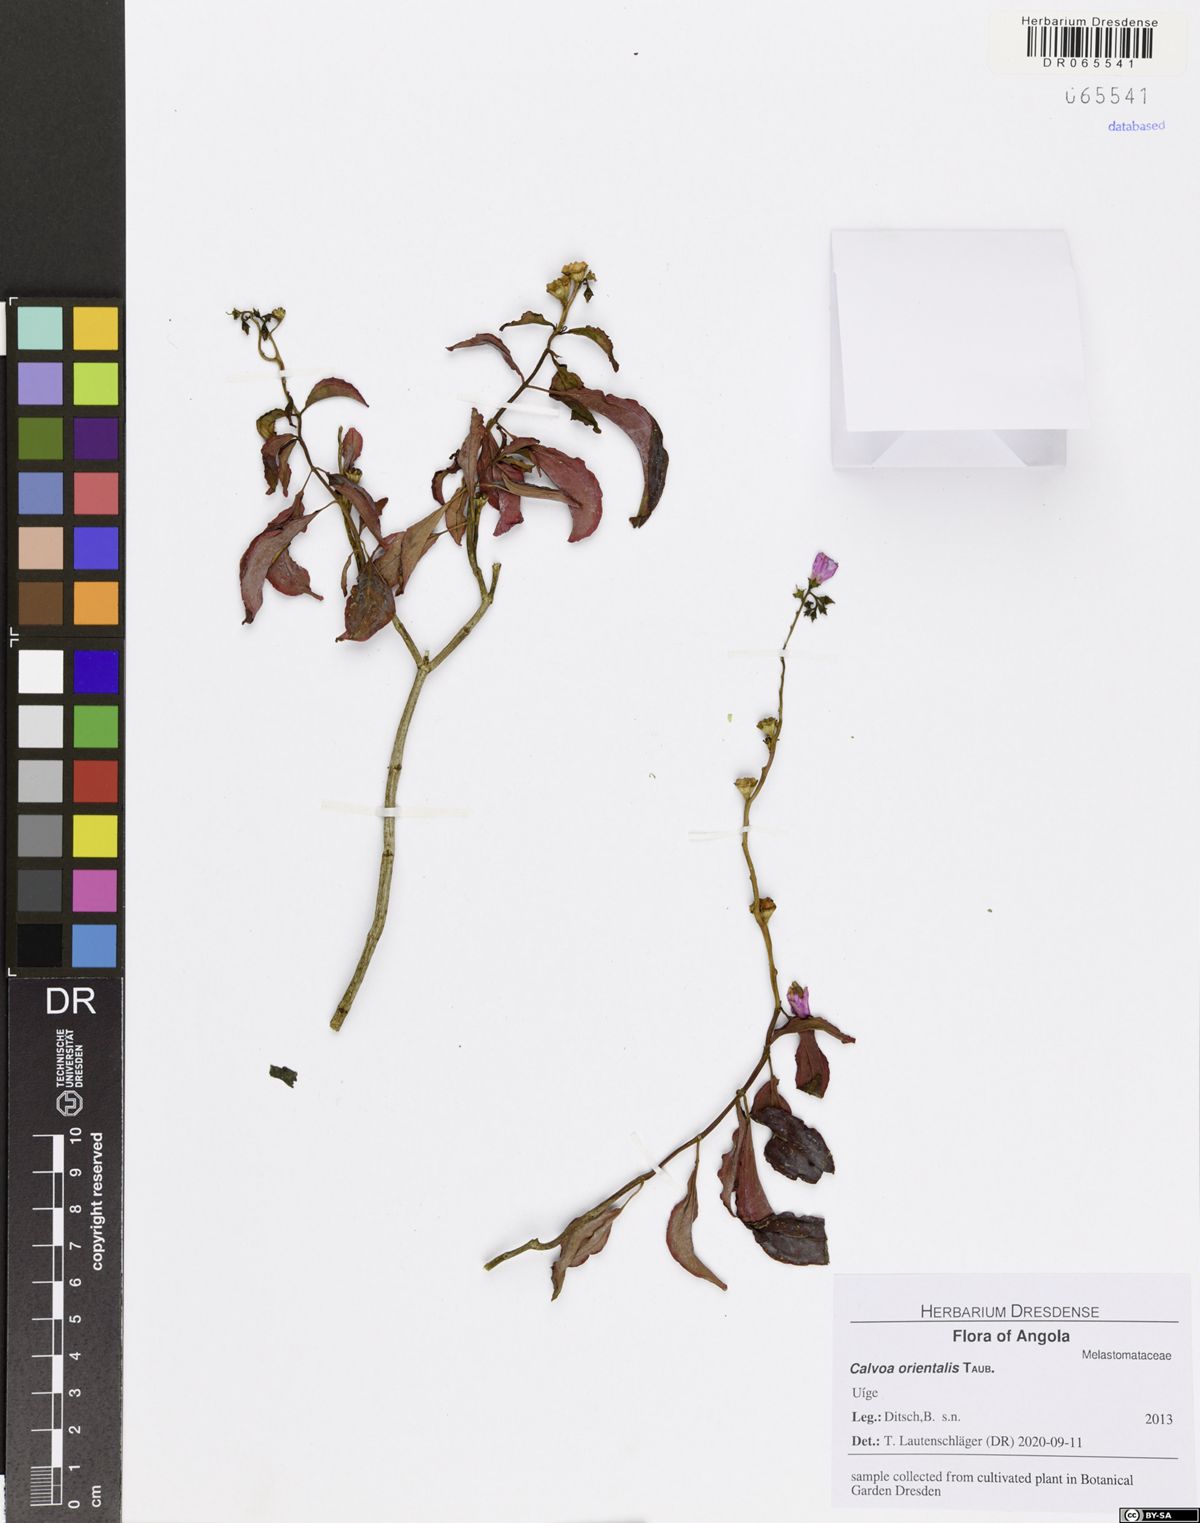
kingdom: Plantae
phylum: Tracheophyta
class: Magnoliopsida
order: Myrtales
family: Melastomataceae
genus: Calvoa
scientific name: Calvoa orientalis
